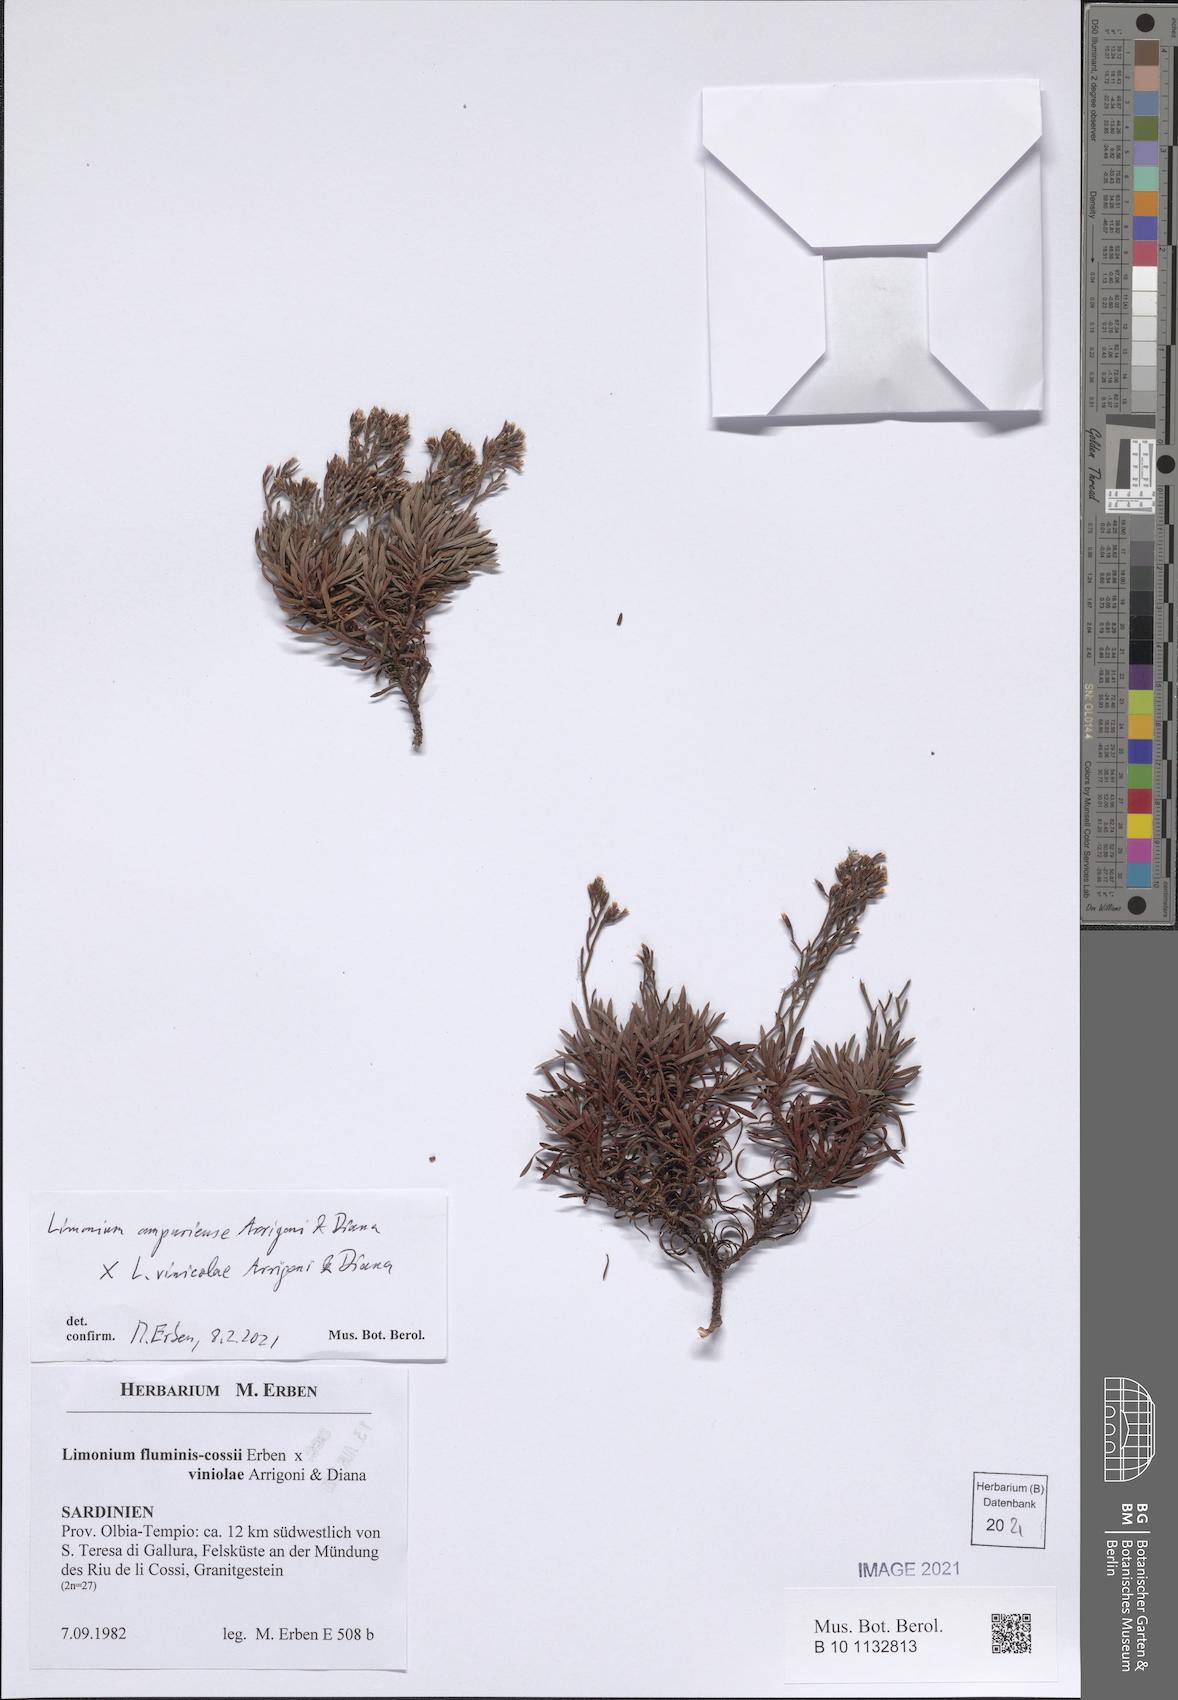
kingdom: Plantae
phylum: Tracheophyta
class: Magnoliopsida
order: Caryophyllales
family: Plumbaginaceae
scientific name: Plumbaginaceae
